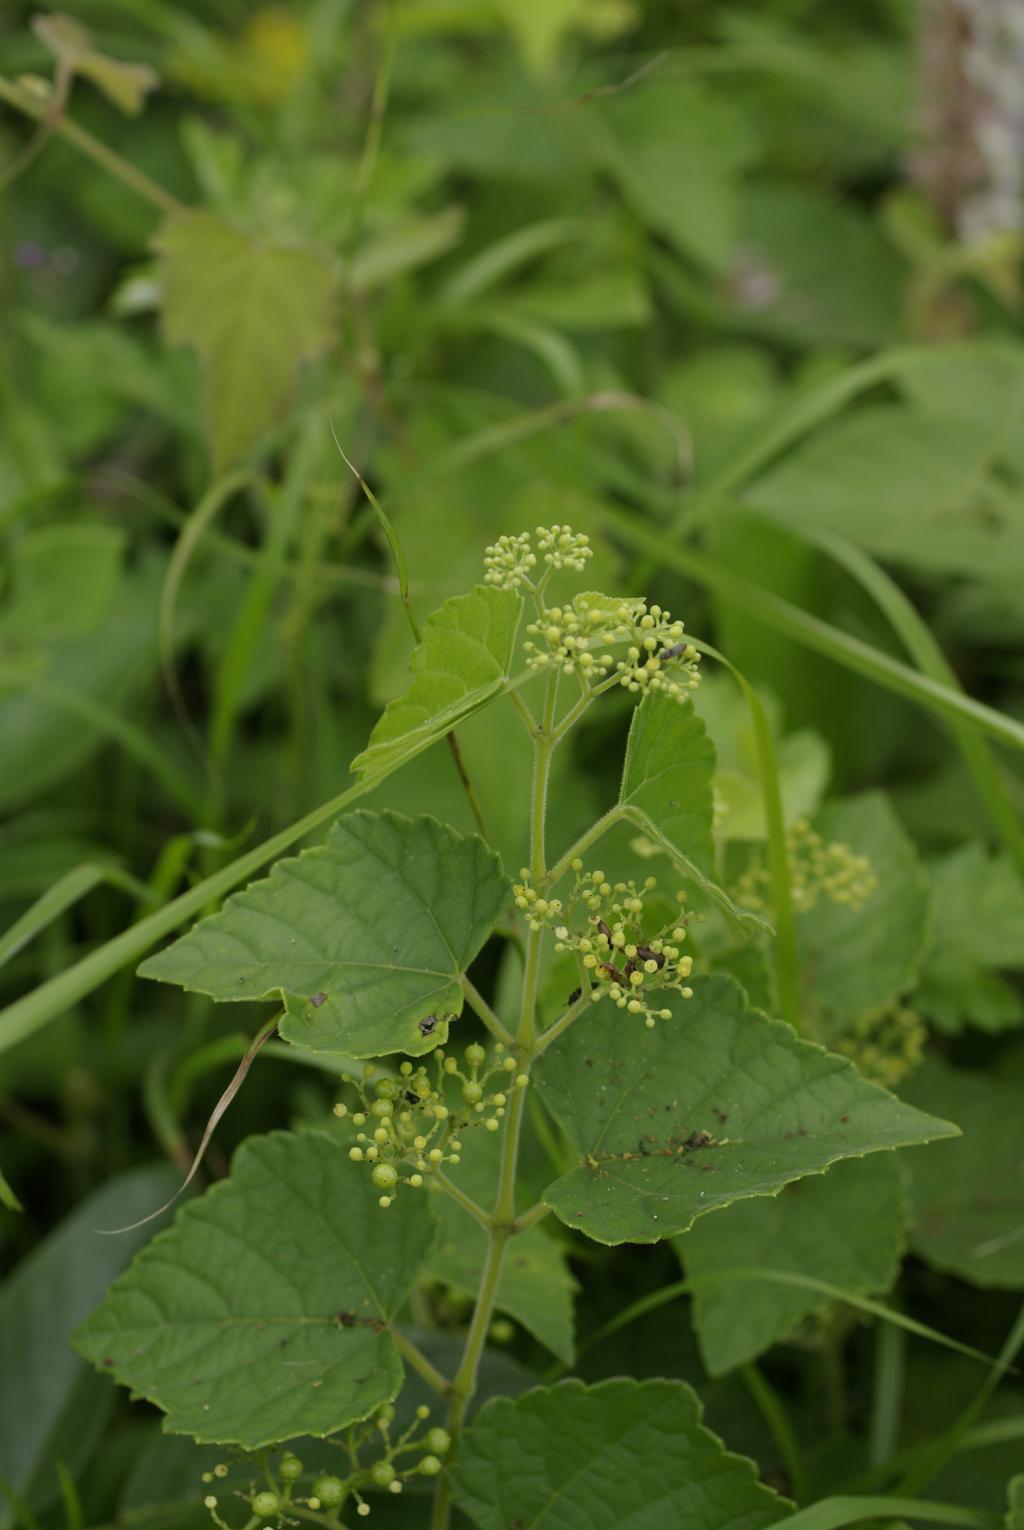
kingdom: Plantae
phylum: Tracheophyta
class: Magnoliopsida
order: Vitales
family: Vitaceae
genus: Ampelopsis
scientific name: Ampelopsis glandulosa
